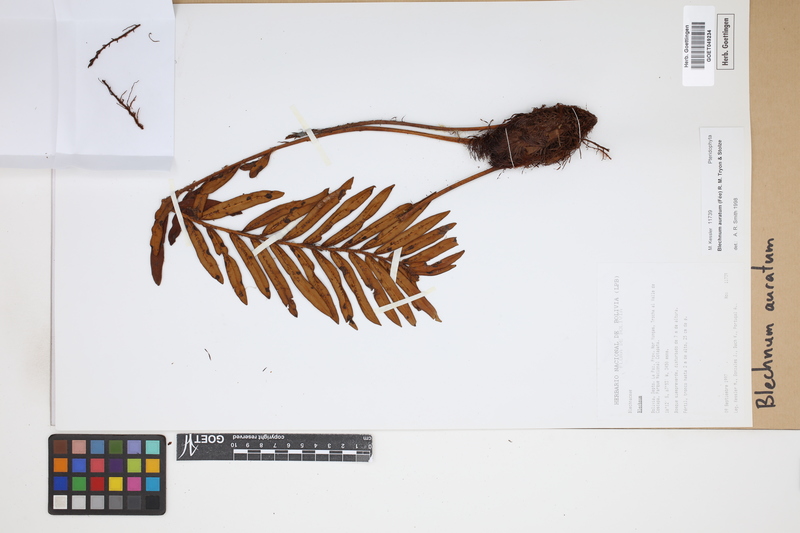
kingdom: Plantae
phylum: Tracheophyta
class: Polypodiopsida
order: Polypodiales
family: Blechnaceae
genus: Lomariocycas
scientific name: Lomariocycas aurata
